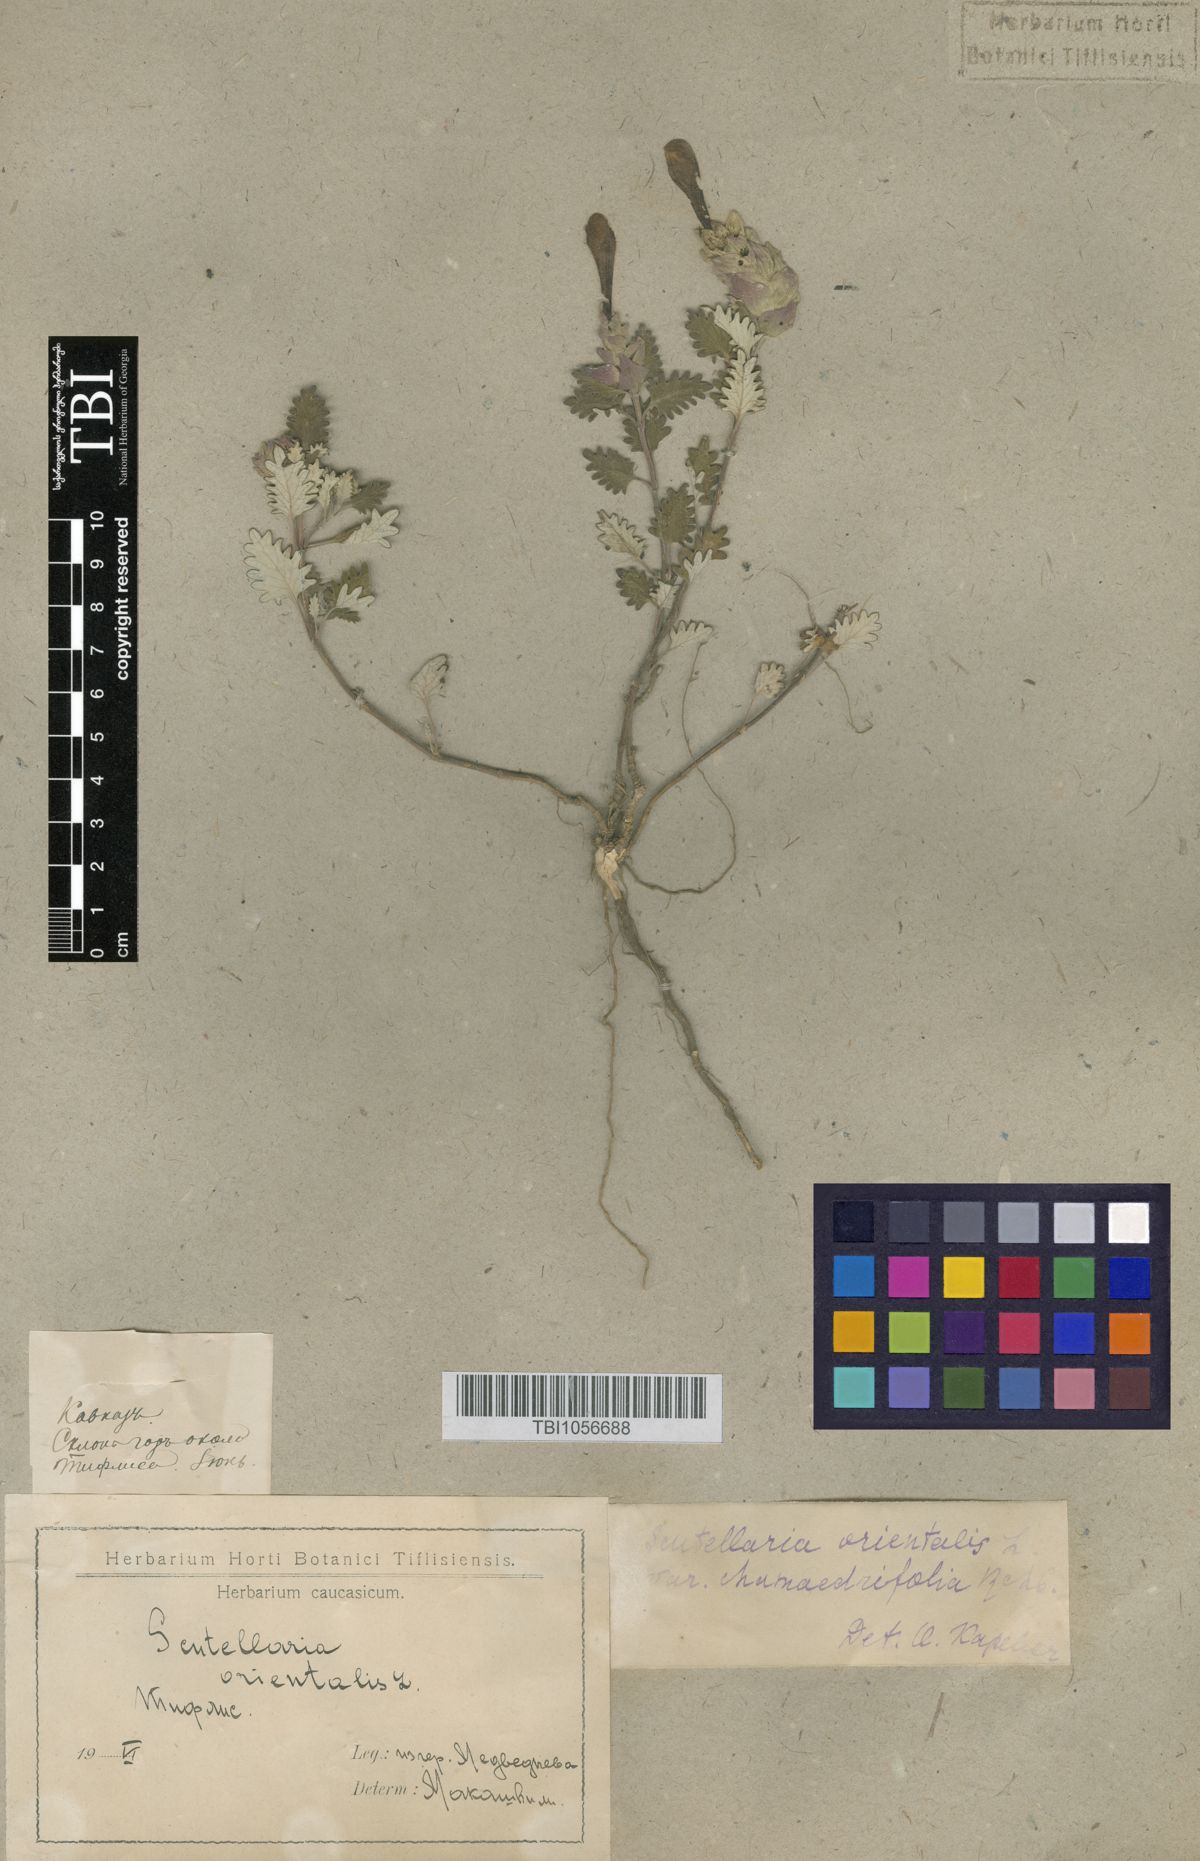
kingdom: Plantae
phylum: Tracheophyta
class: Magnoliopsida
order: Lamiales
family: Lamiaceae
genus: Scutellaria
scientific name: Scutellaria orientalis
